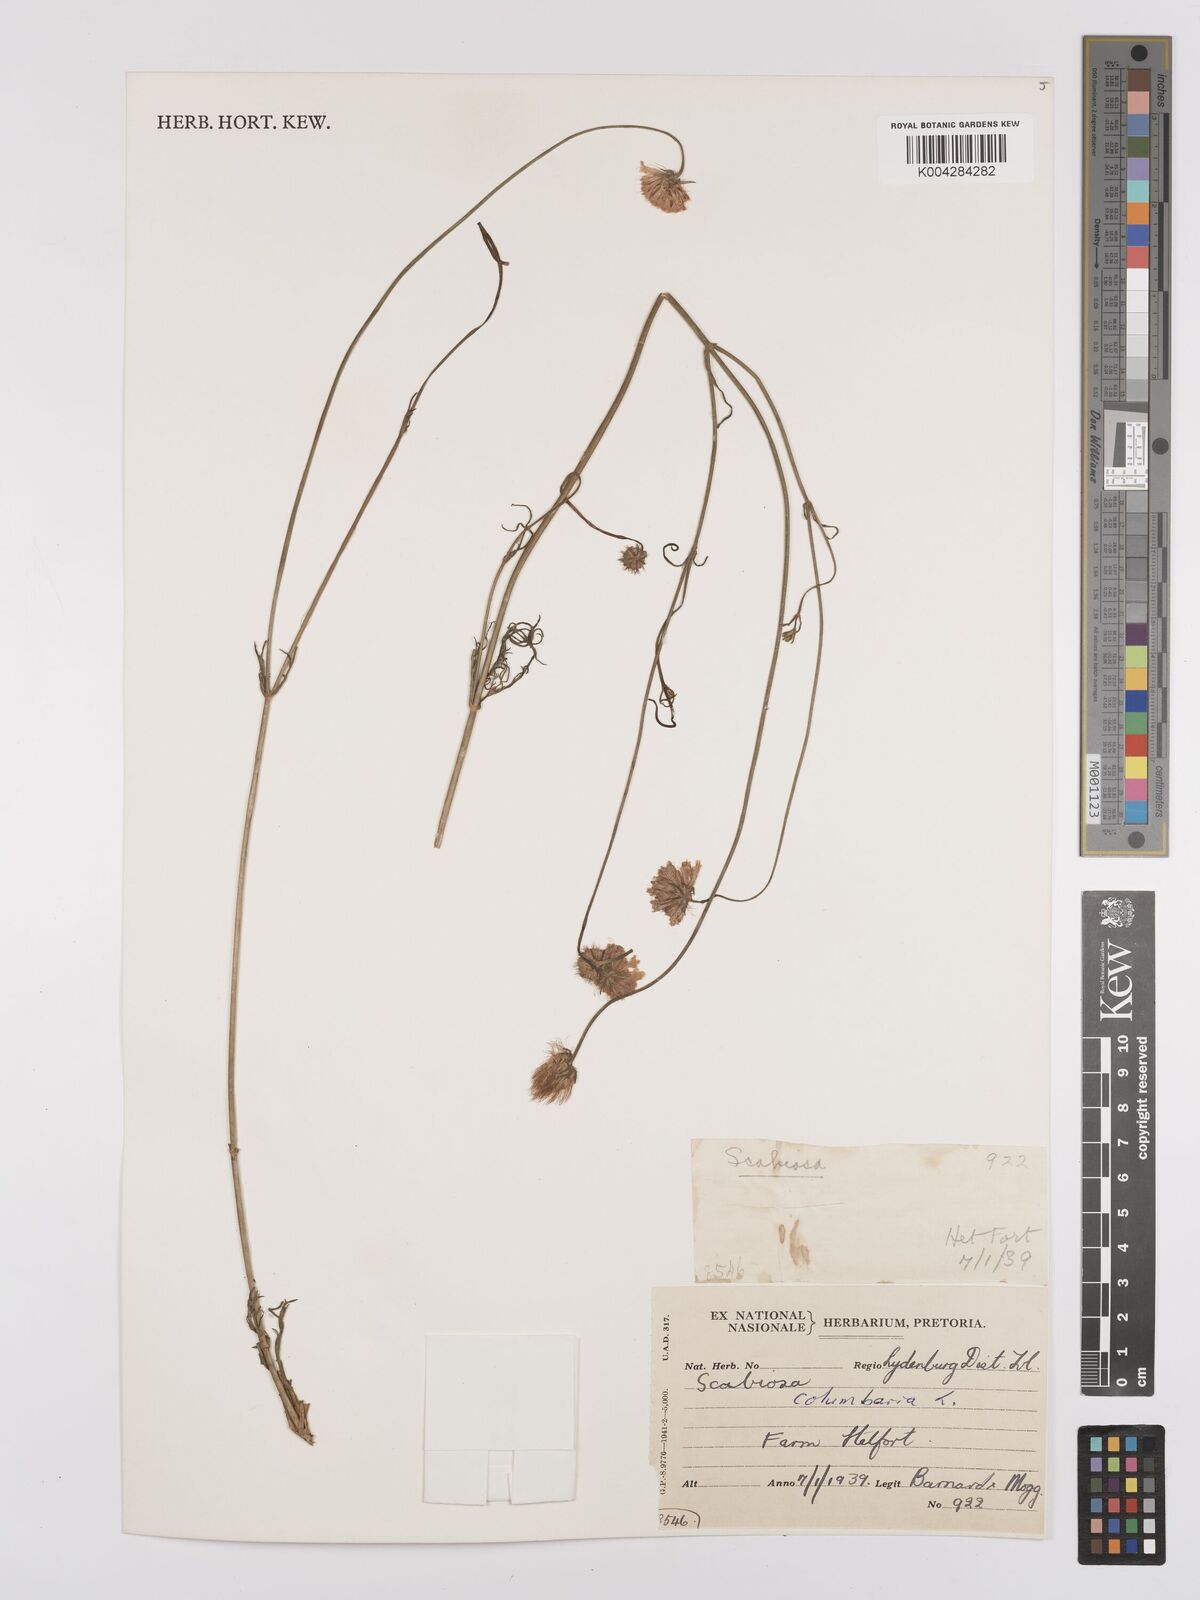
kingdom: Plantae
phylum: Tracheophyta
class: Magnoliopsida
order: Dipsacales
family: Caprifoliaceae
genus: Scabiosa
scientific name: Scabiosa columbaria
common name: Small scabious
